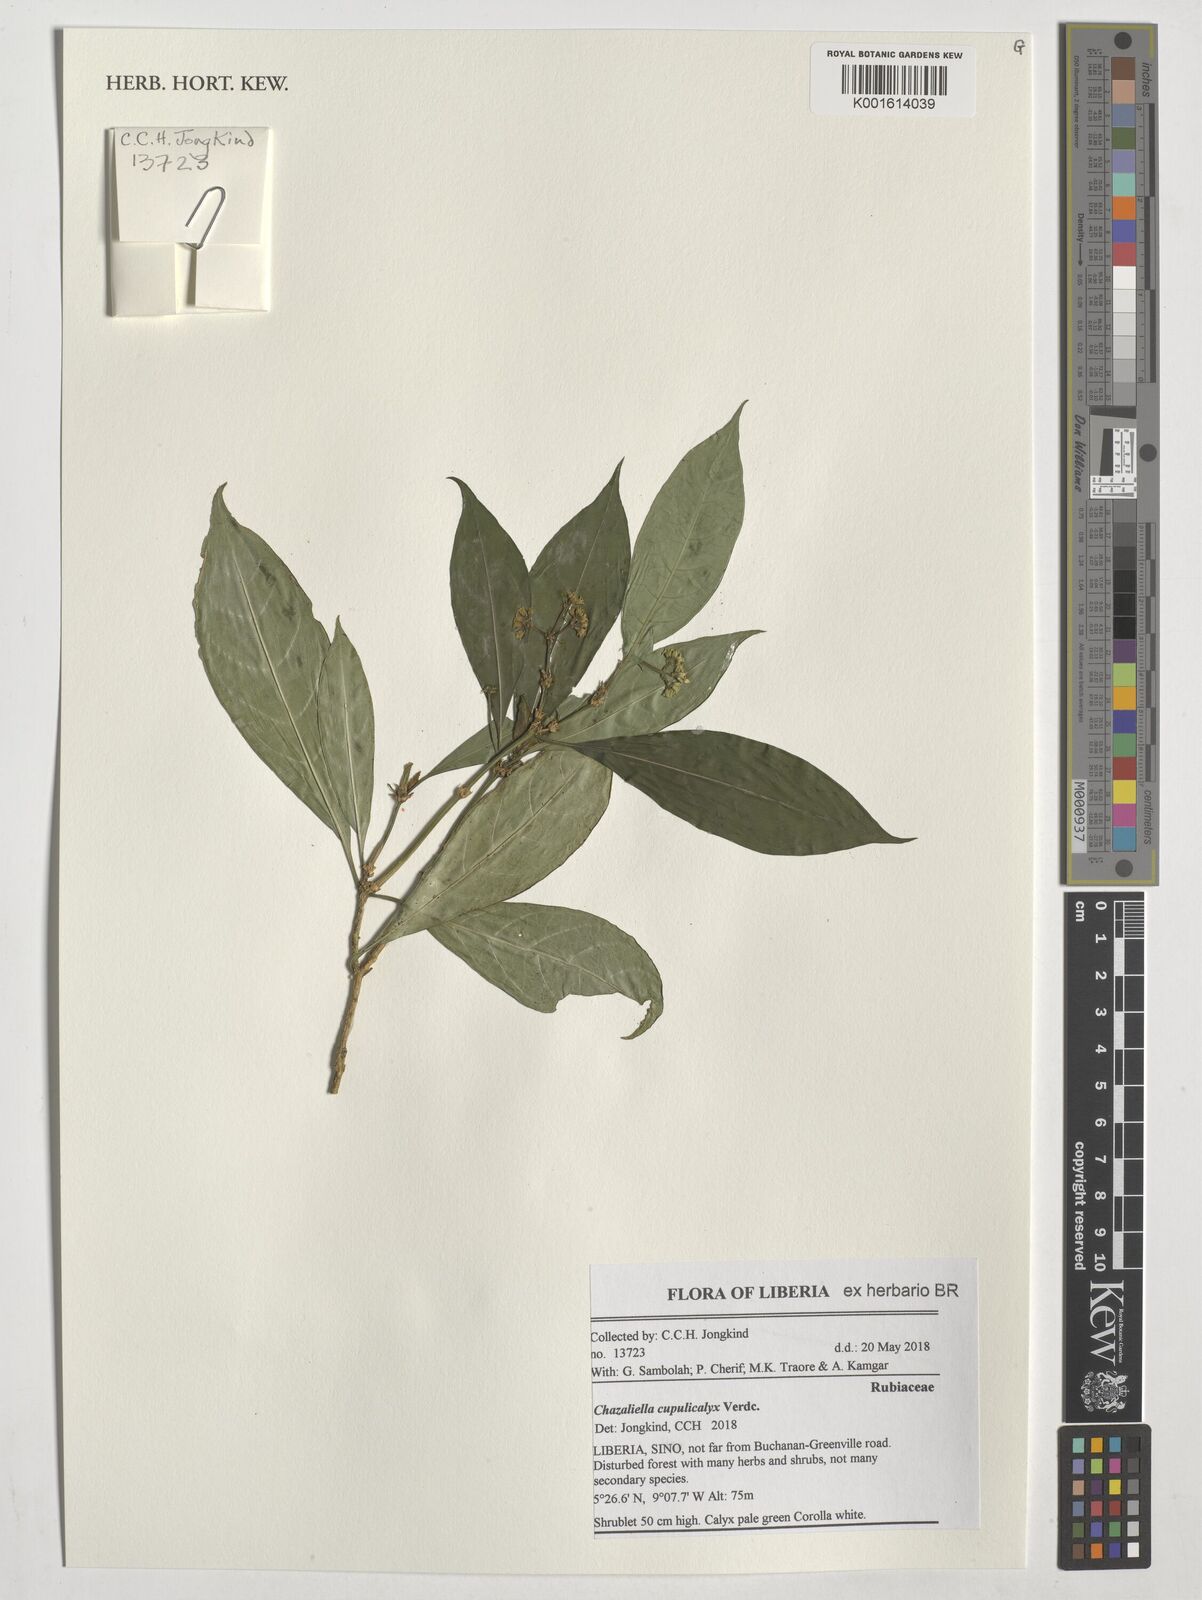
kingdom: Plantae
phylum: Tracheophyta
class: Magnoliopsida
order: Gentianales
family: Rubiaceae
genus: Eumachia
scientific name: Eumachia cupulicalyx
